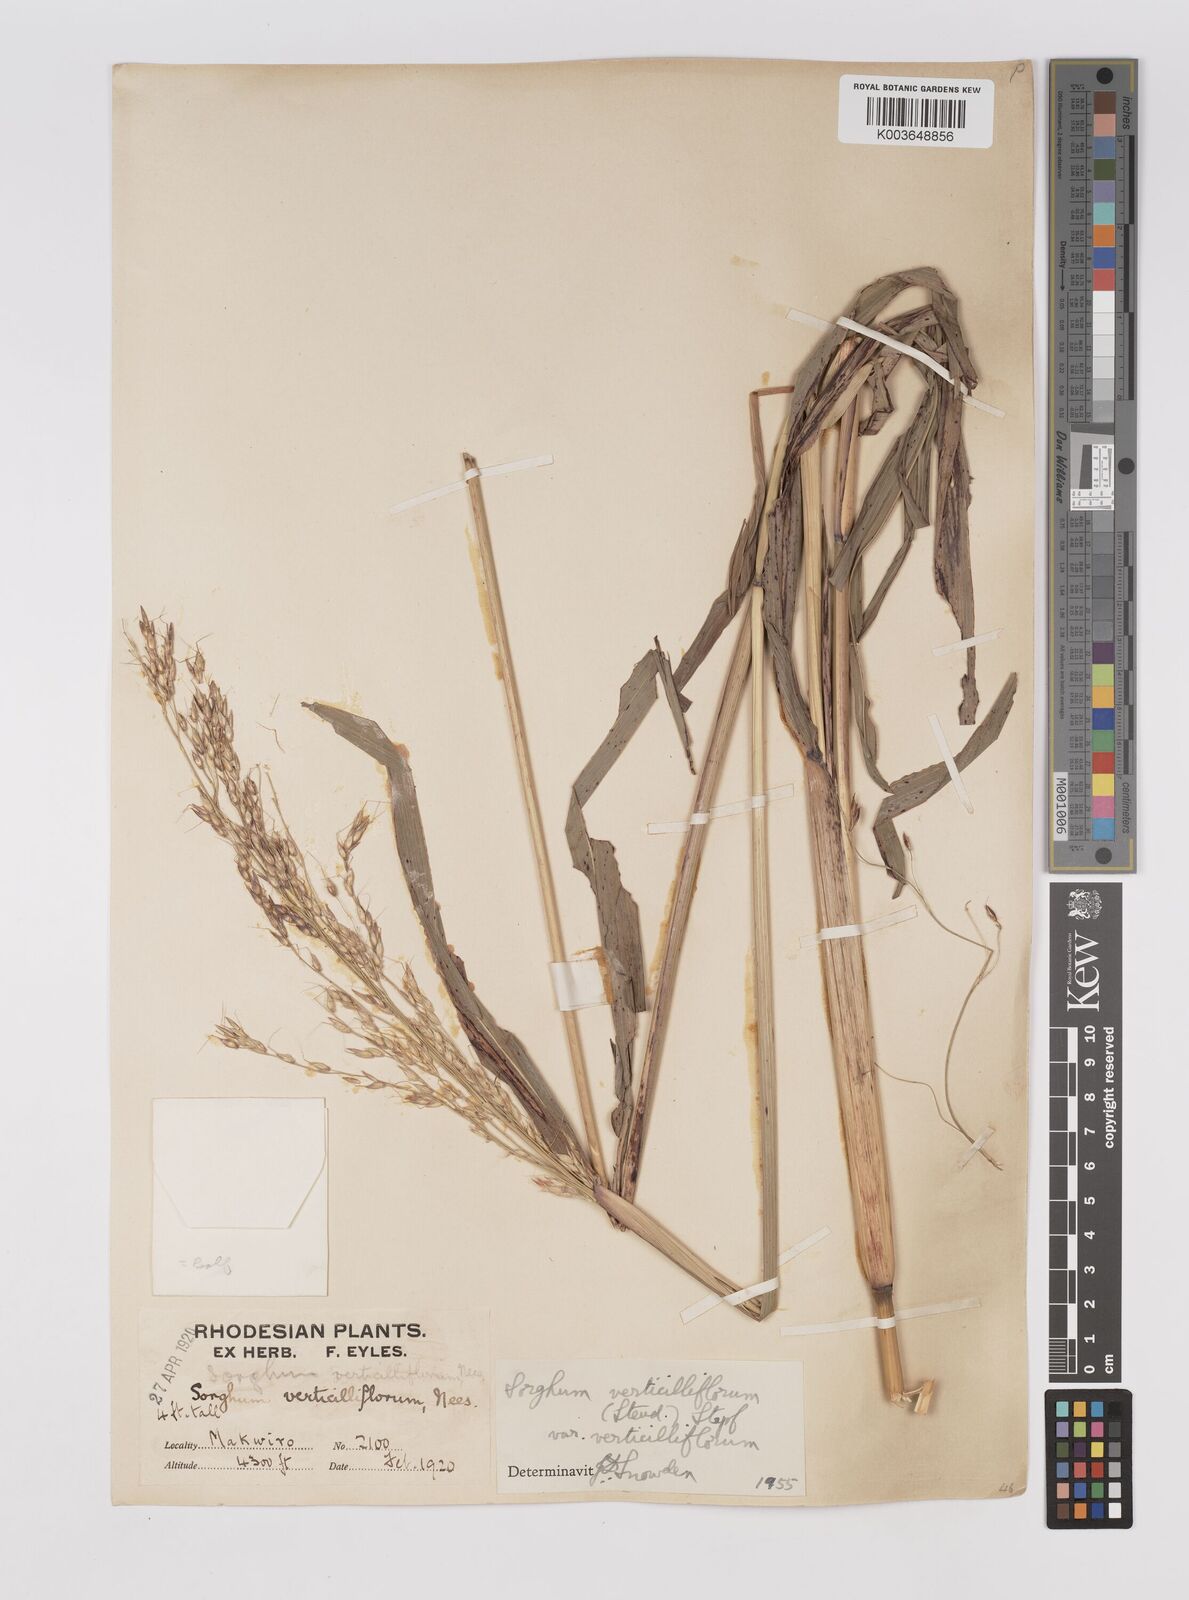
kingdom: Plantae
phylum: Tracheophyta
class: Liliopsida
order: Poales
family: Poaceae
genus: Sorghum
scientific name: Sorghum arundinaceum
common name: Sorghum
